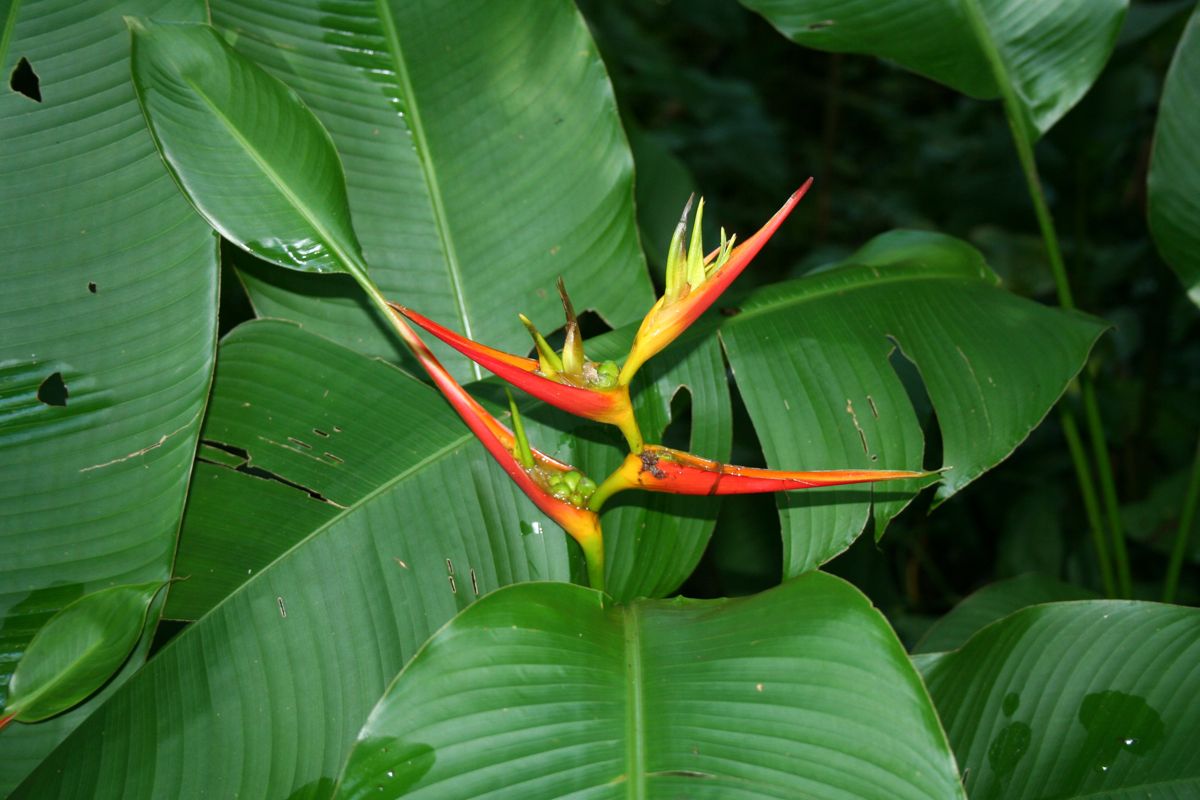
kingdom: Plantae
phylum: Tracheophyta
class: Liliopsida
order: Zingiberales
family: Heliconiaceae
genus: Heliconia
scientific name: Heliconia latispatha
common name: Expanded lobsterclaw
